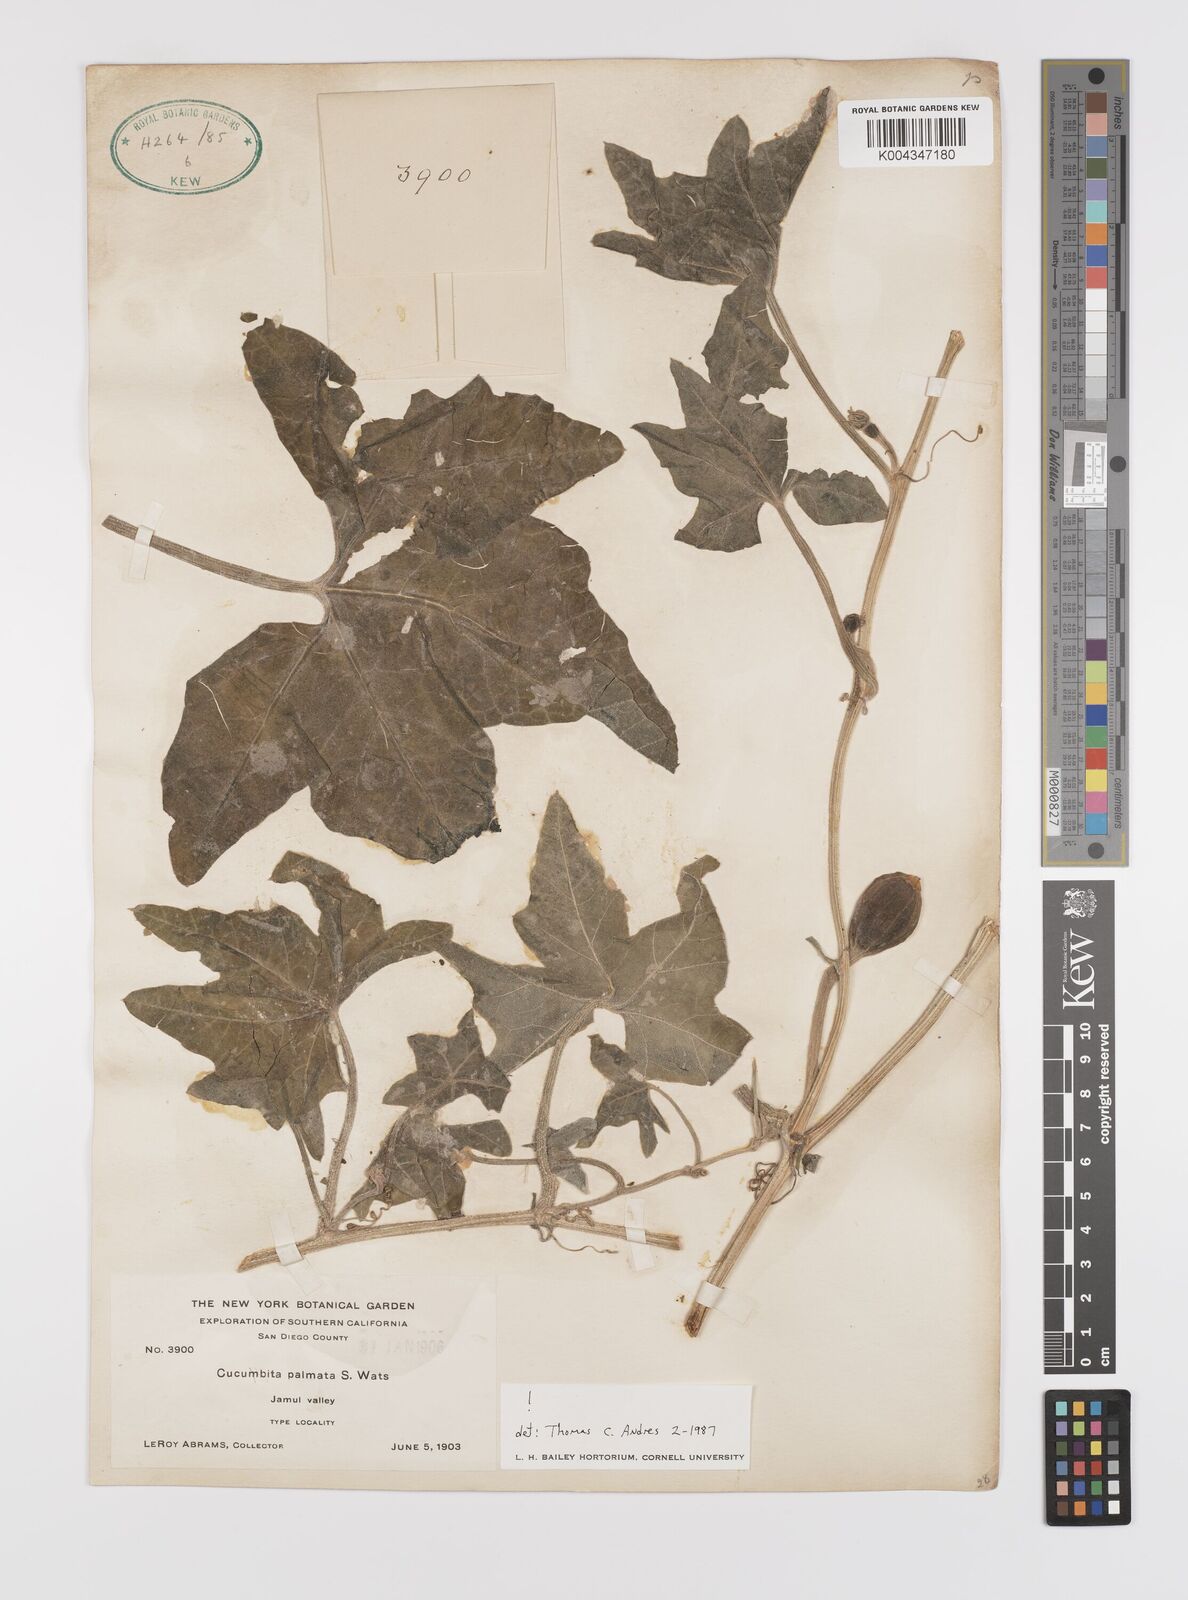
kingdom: Plantae
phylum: Tracheophyta
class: Magnoliopsida
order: Cucurbitales
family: Cucurbitaceae
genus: Cucurbita
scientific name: Cucurbita palmata
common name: Coyote-melon
